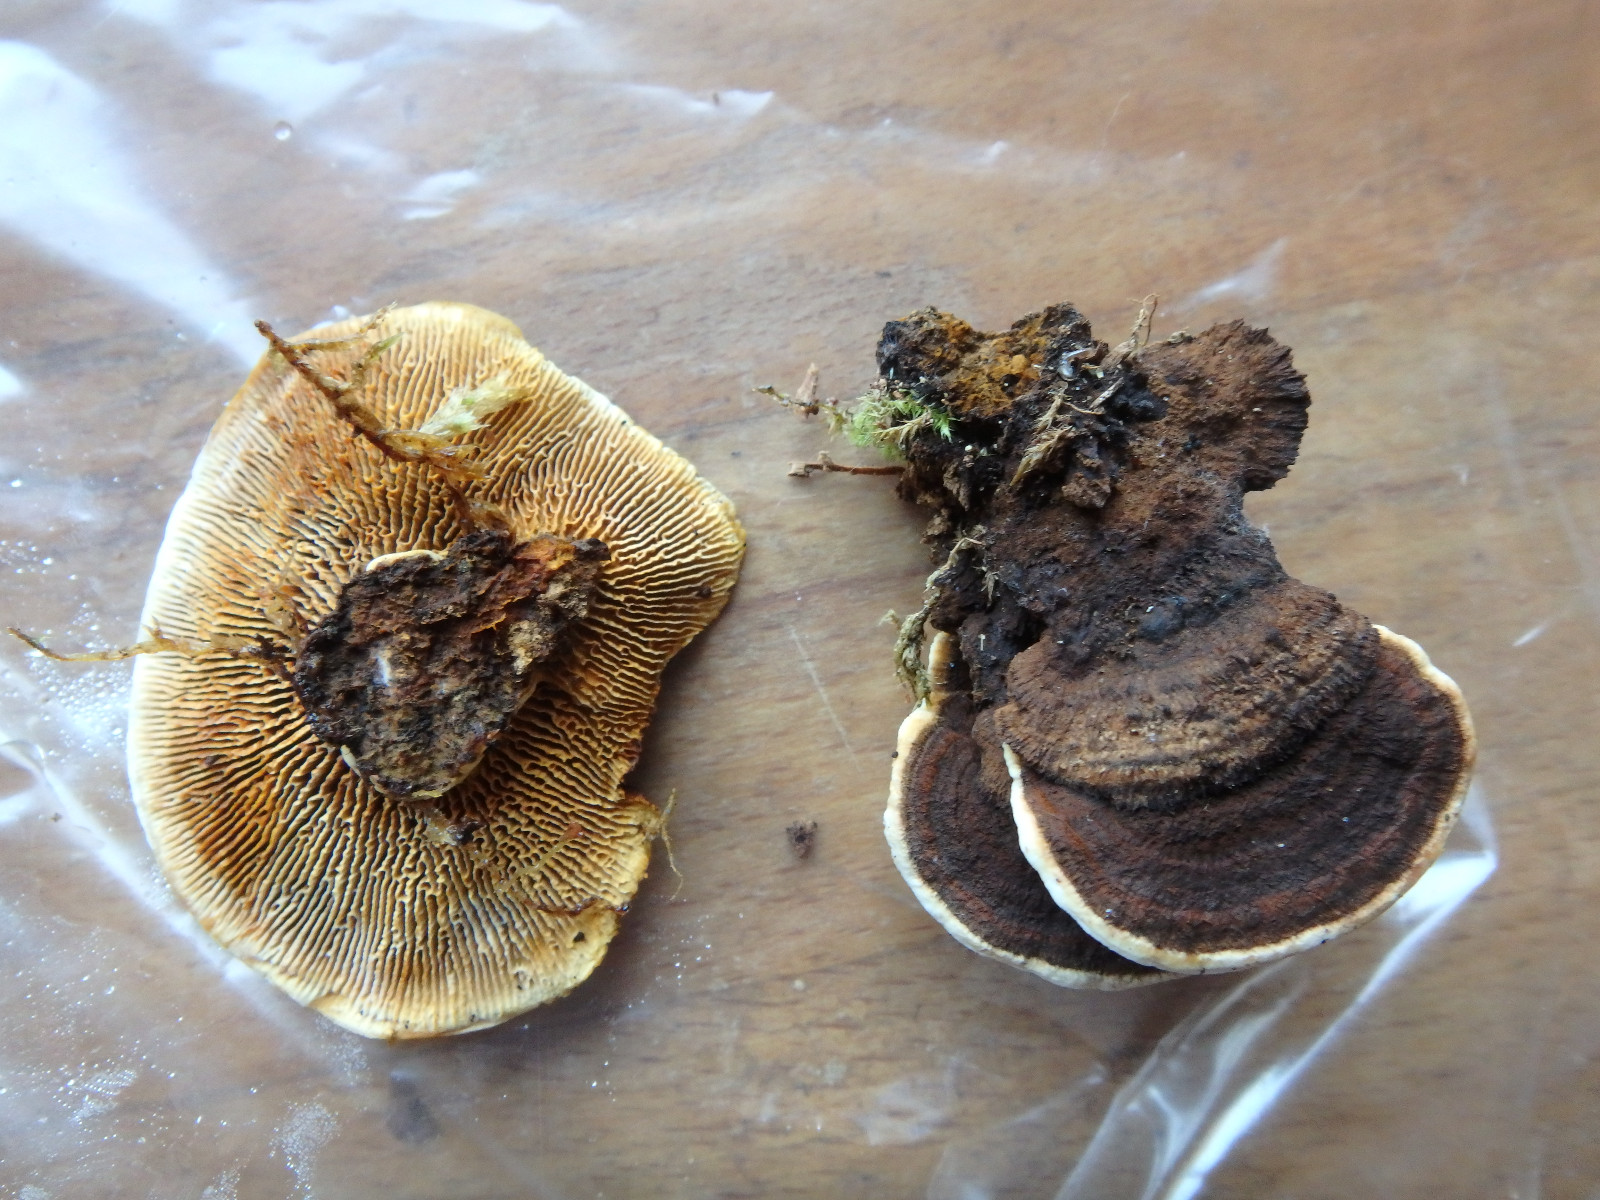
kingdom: Fungi
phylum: Basidiomycota
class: Agaricomycetes
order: Gloeophyllales
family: Gloeophyllaceae
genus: Gloeophyllum
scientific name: Gloeophyllum sepiarium
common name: fyrre-korkhat
